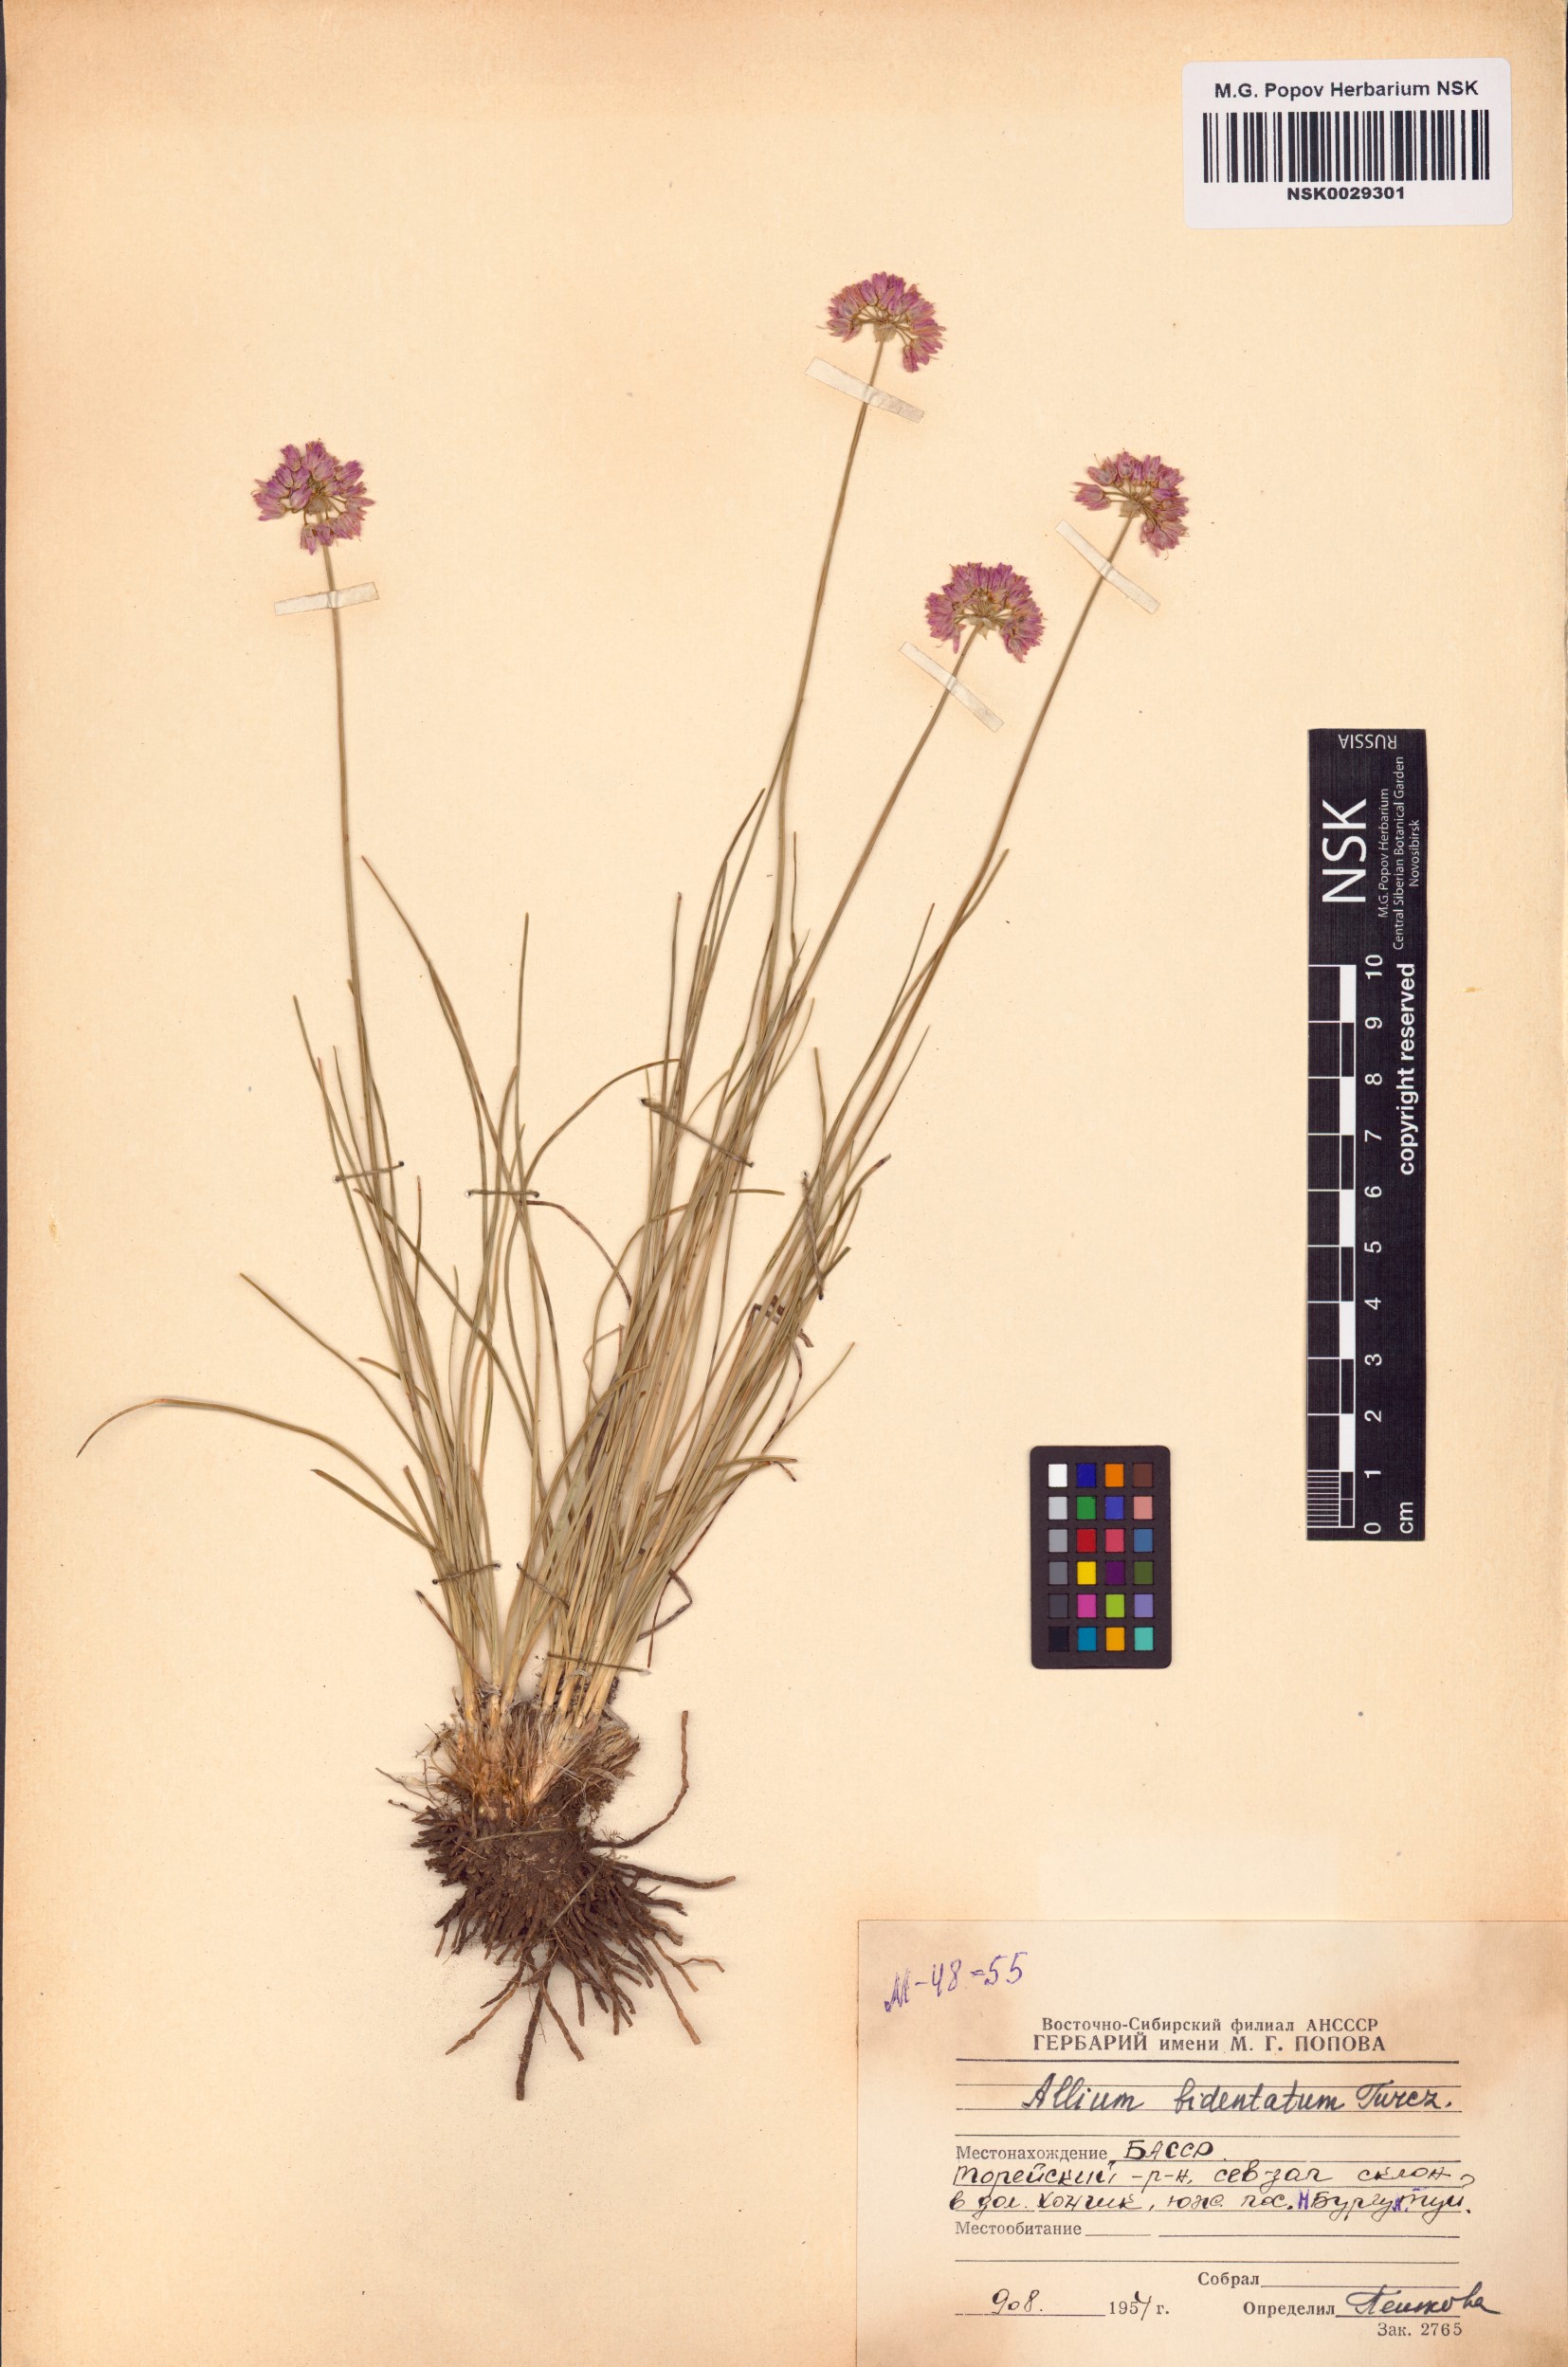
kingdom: Plantae
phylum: Tracheophyta
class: Liliopsida
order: Asparagales
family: Amaryllidaceae
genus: Allium
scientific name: Allium bidentatum
